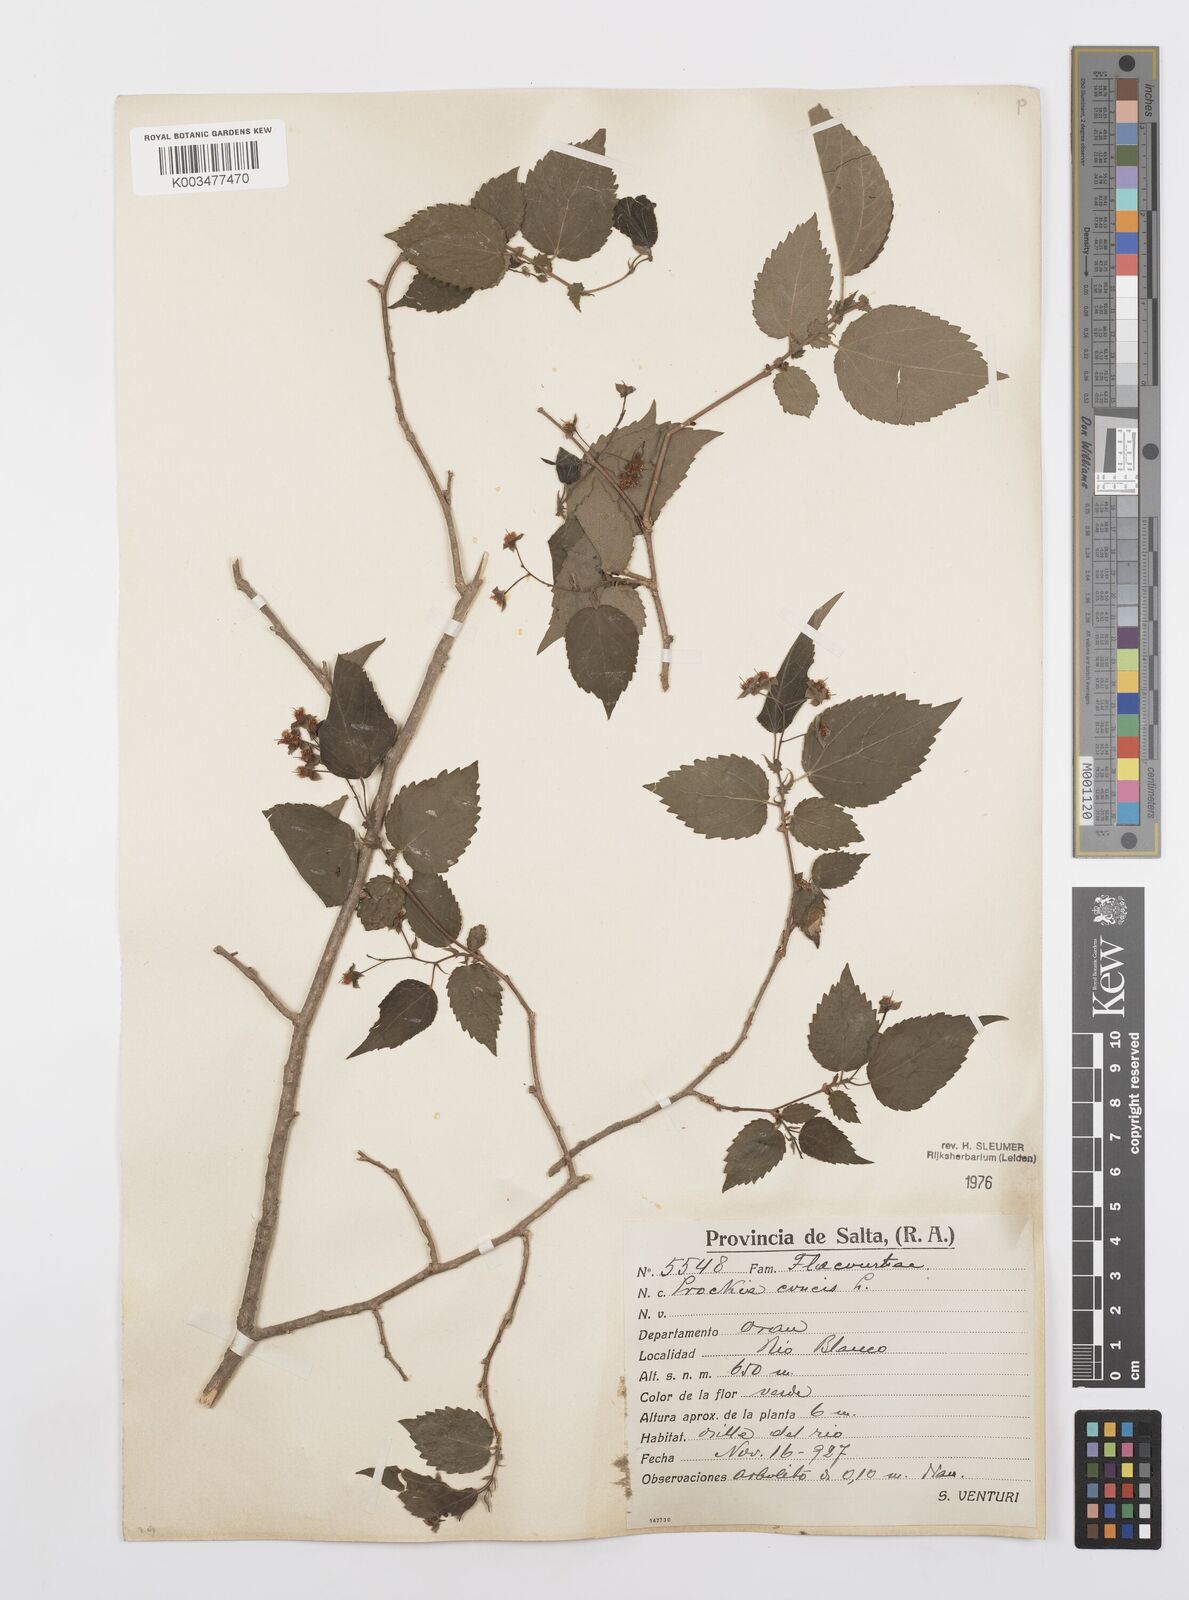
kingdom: Plantae
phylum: Tracheophyta
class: Magnoliopsida
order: Malpighiales
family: Salicaceae
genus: Prockia
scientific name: Prockia crucis
